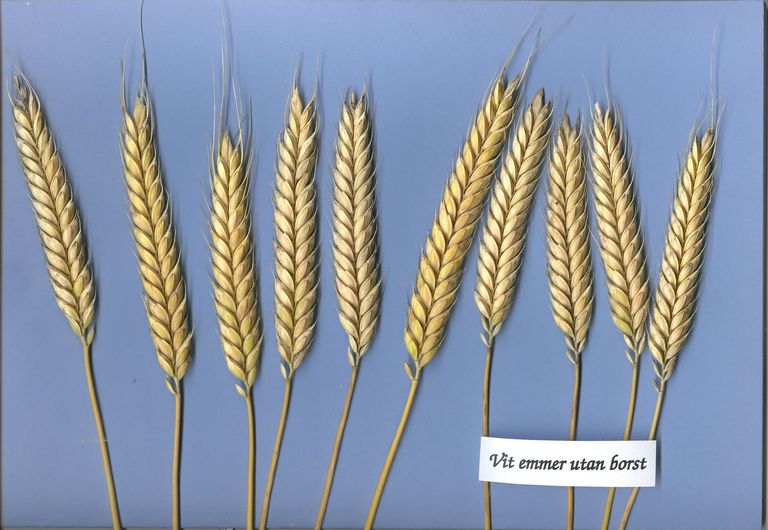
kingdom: Plantae
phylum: Tracheophyta
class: Liliopsida
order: Poales
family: Poaceae
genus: Triticum
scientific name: Triticum turgidum
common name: Rivet wheat
